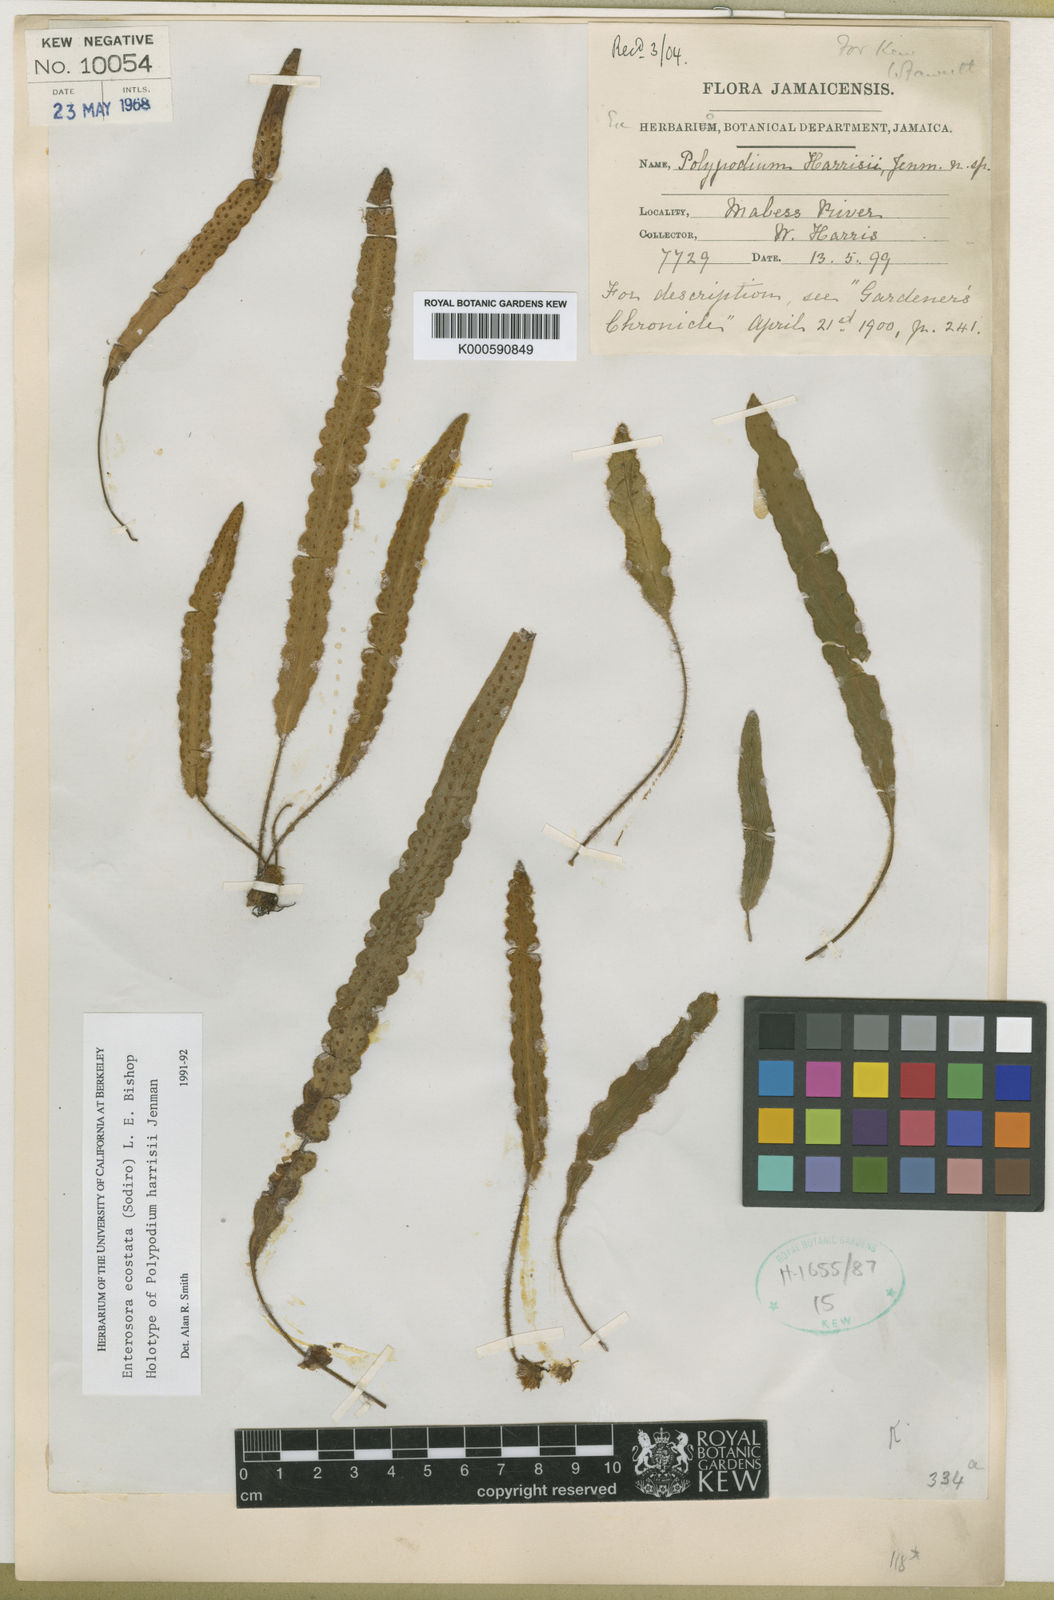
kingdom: Plantae
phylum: Tracheophyta
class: Polypodiopsida
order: Polypodiales
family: Polypodiaceae
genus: Enterosora
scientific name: Enterosora ecostata
